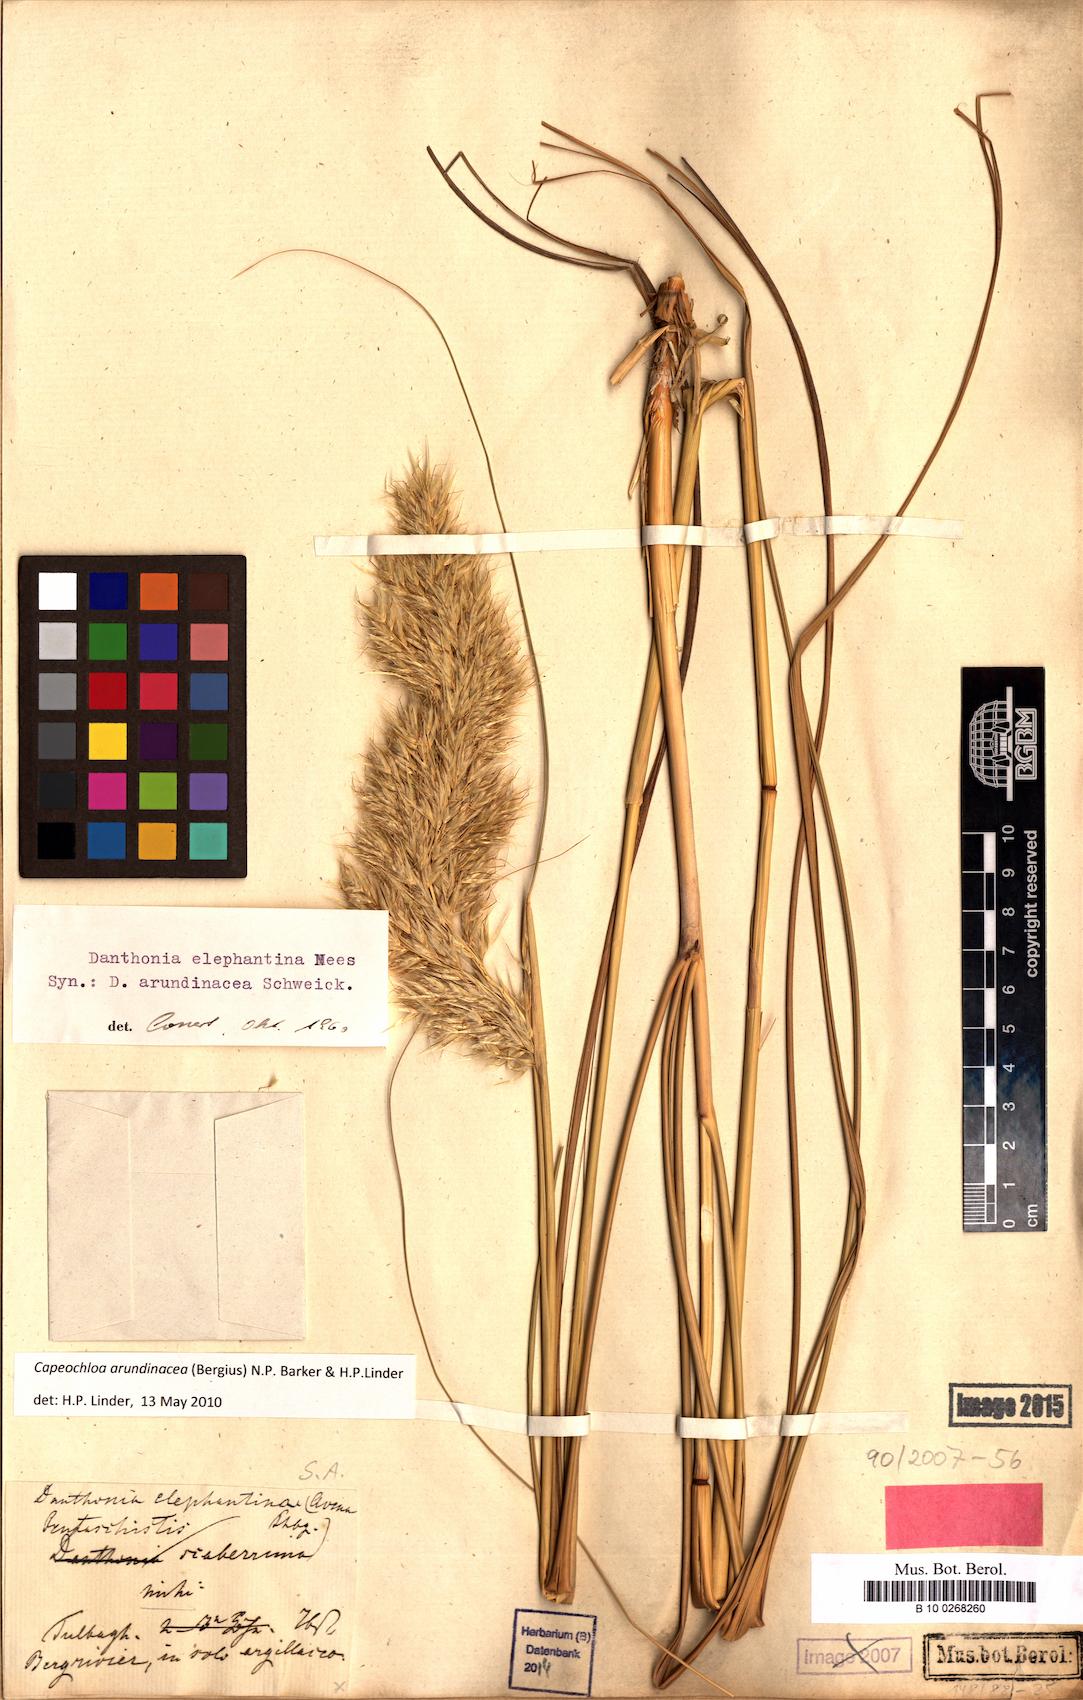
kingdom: Plantae
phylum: Tracheophyta
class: Liliopsida
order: Poales
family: Poaceae
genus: Capeochloa
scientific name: Capeochloa arundinacea
